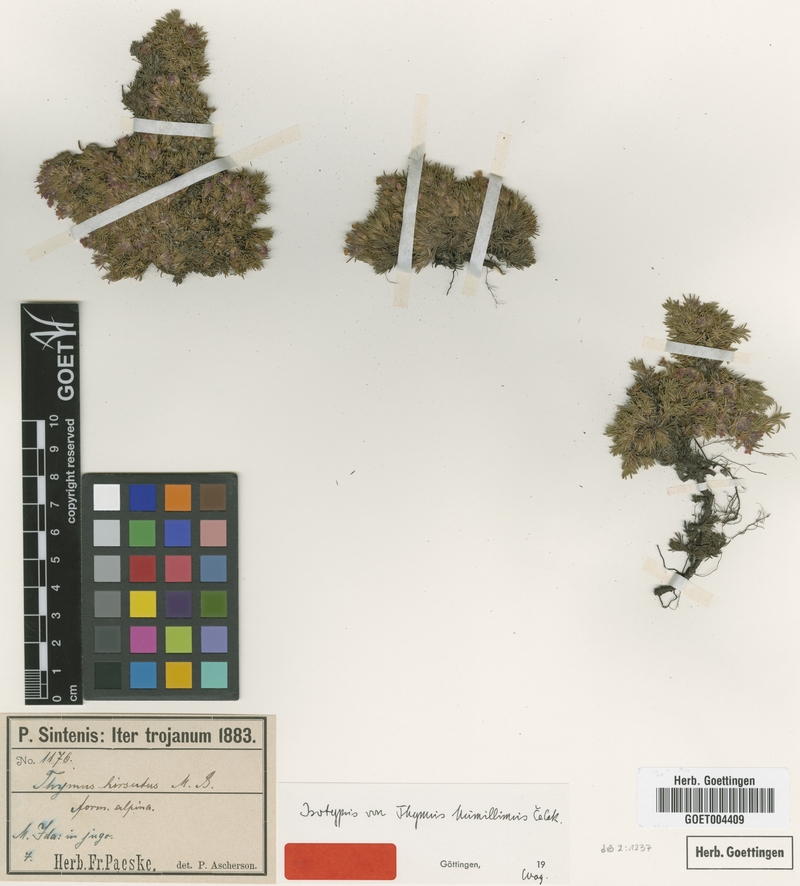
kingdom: Plantae
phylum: Tracheophyta
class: Magnoliopsida
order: Lamiales
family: Lamiaceae
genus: Thymus
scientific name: Thymus cherlerioides
